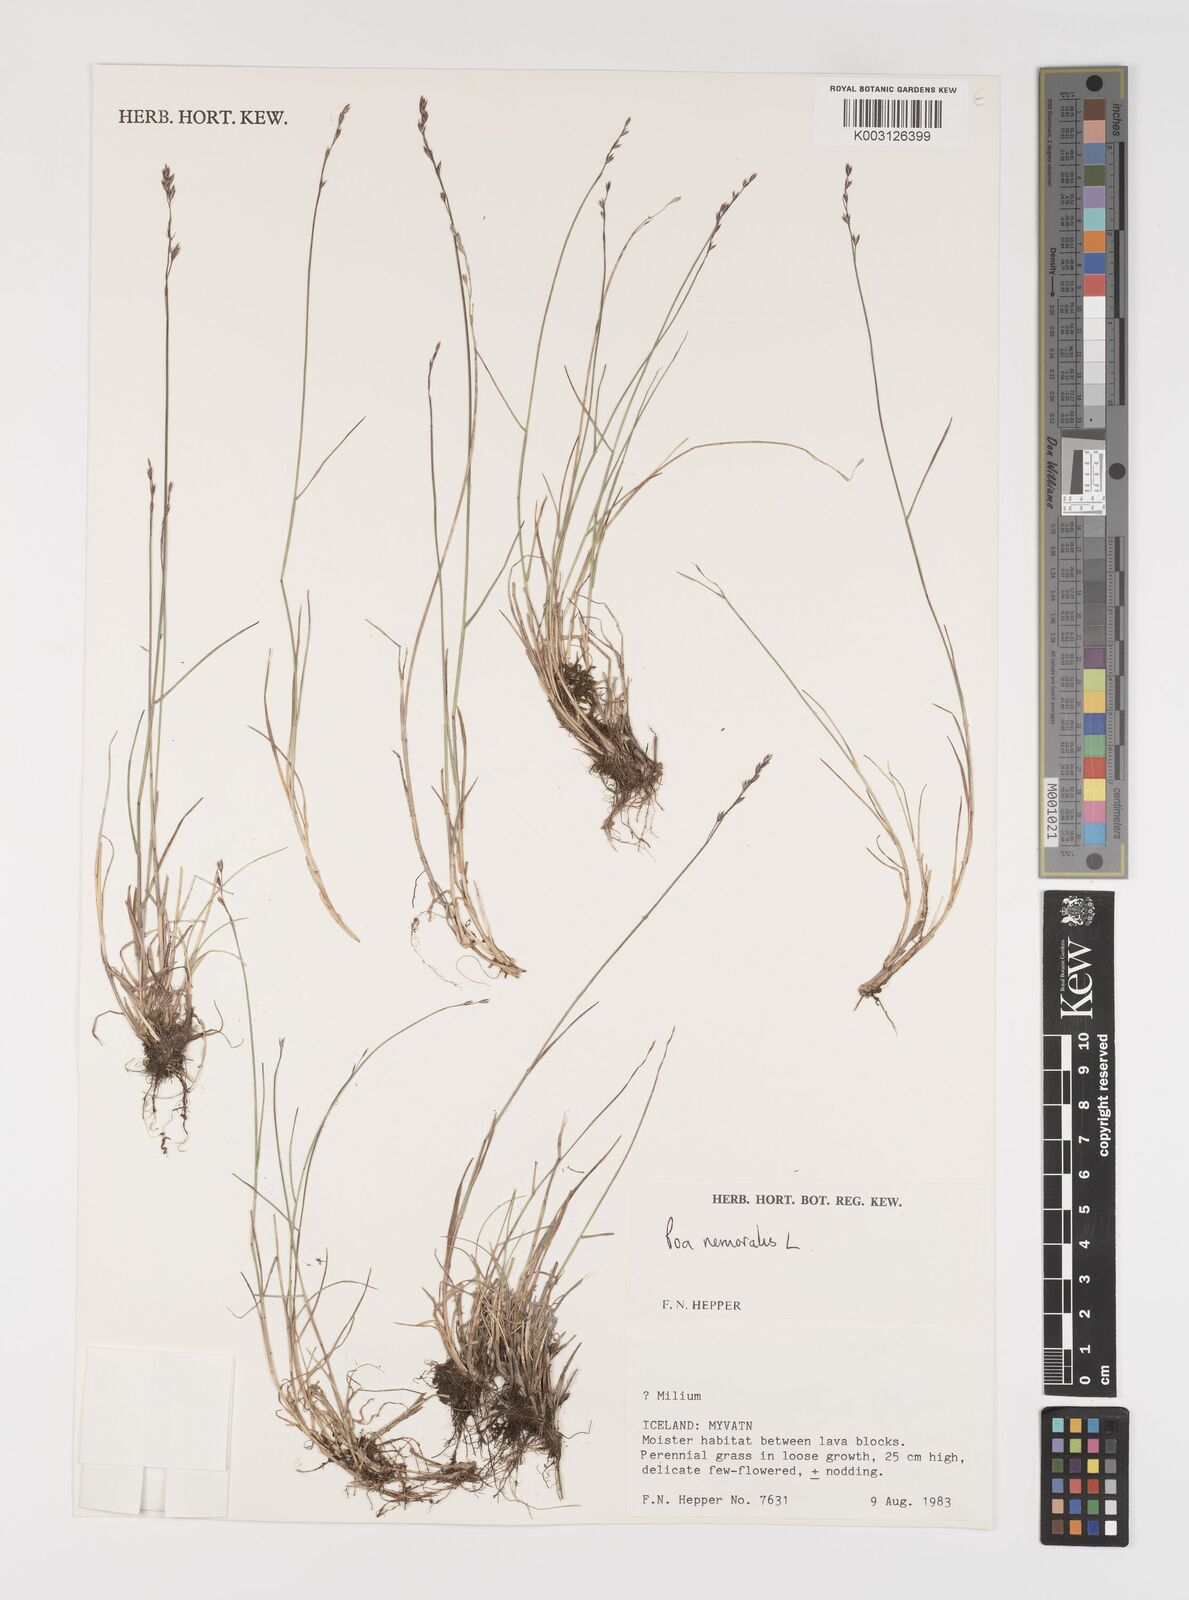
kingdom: Plantae
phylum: Tracheophyta
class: Liliopsida
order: Poales
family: Poaceae
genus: Poa
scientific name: Poa nemoralis
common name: Wood bluegrass
